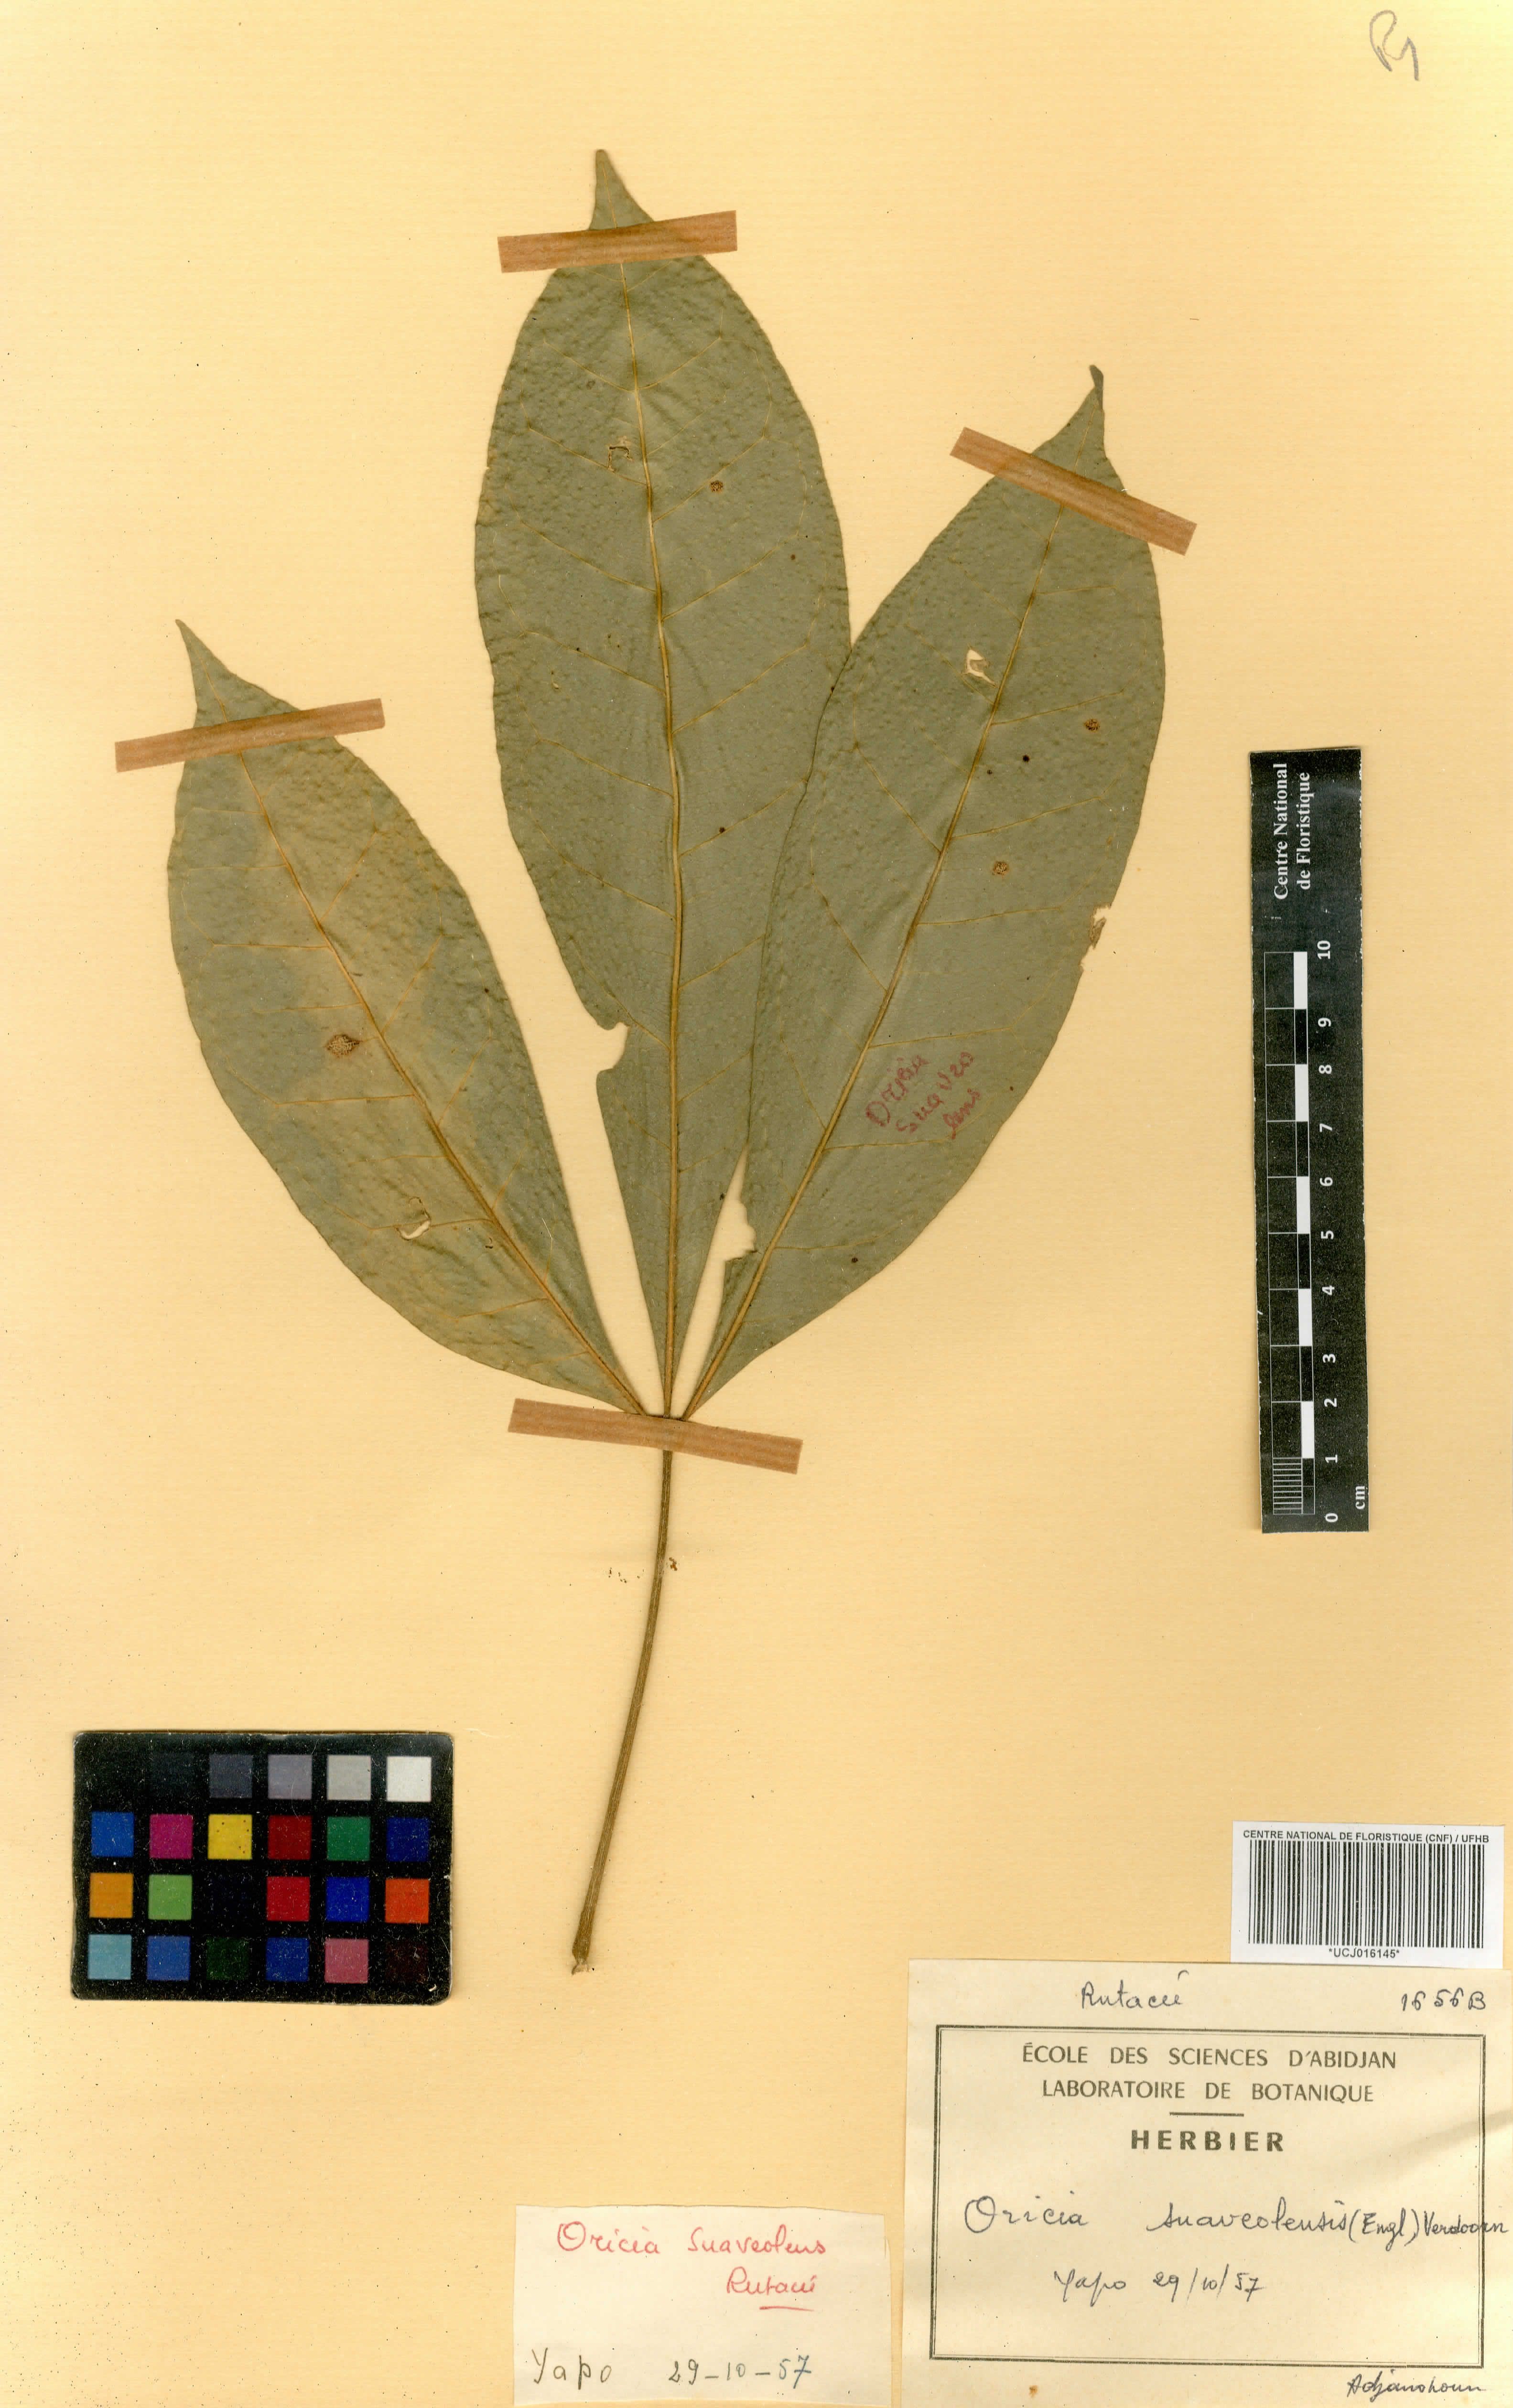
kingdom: Plantae
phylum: Tracheophyta
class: Magnoliopsida
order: Sapindales
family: Rutaceae
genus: Vepris
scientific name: Vepris suaveolens
